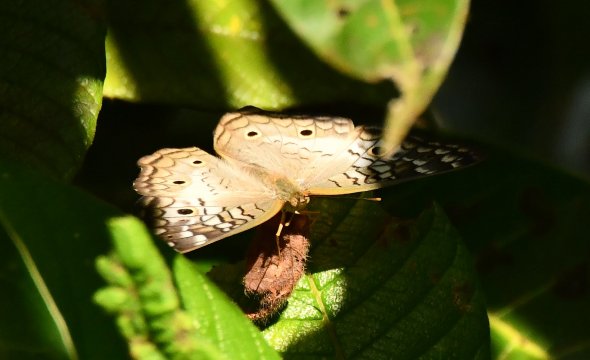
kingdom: Animalia
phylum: Arthropoda
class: Insecta
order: Lepidoptera
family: Nymphalidae
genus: Anartia
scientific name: Anartia jatrophae
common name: White Peacock
